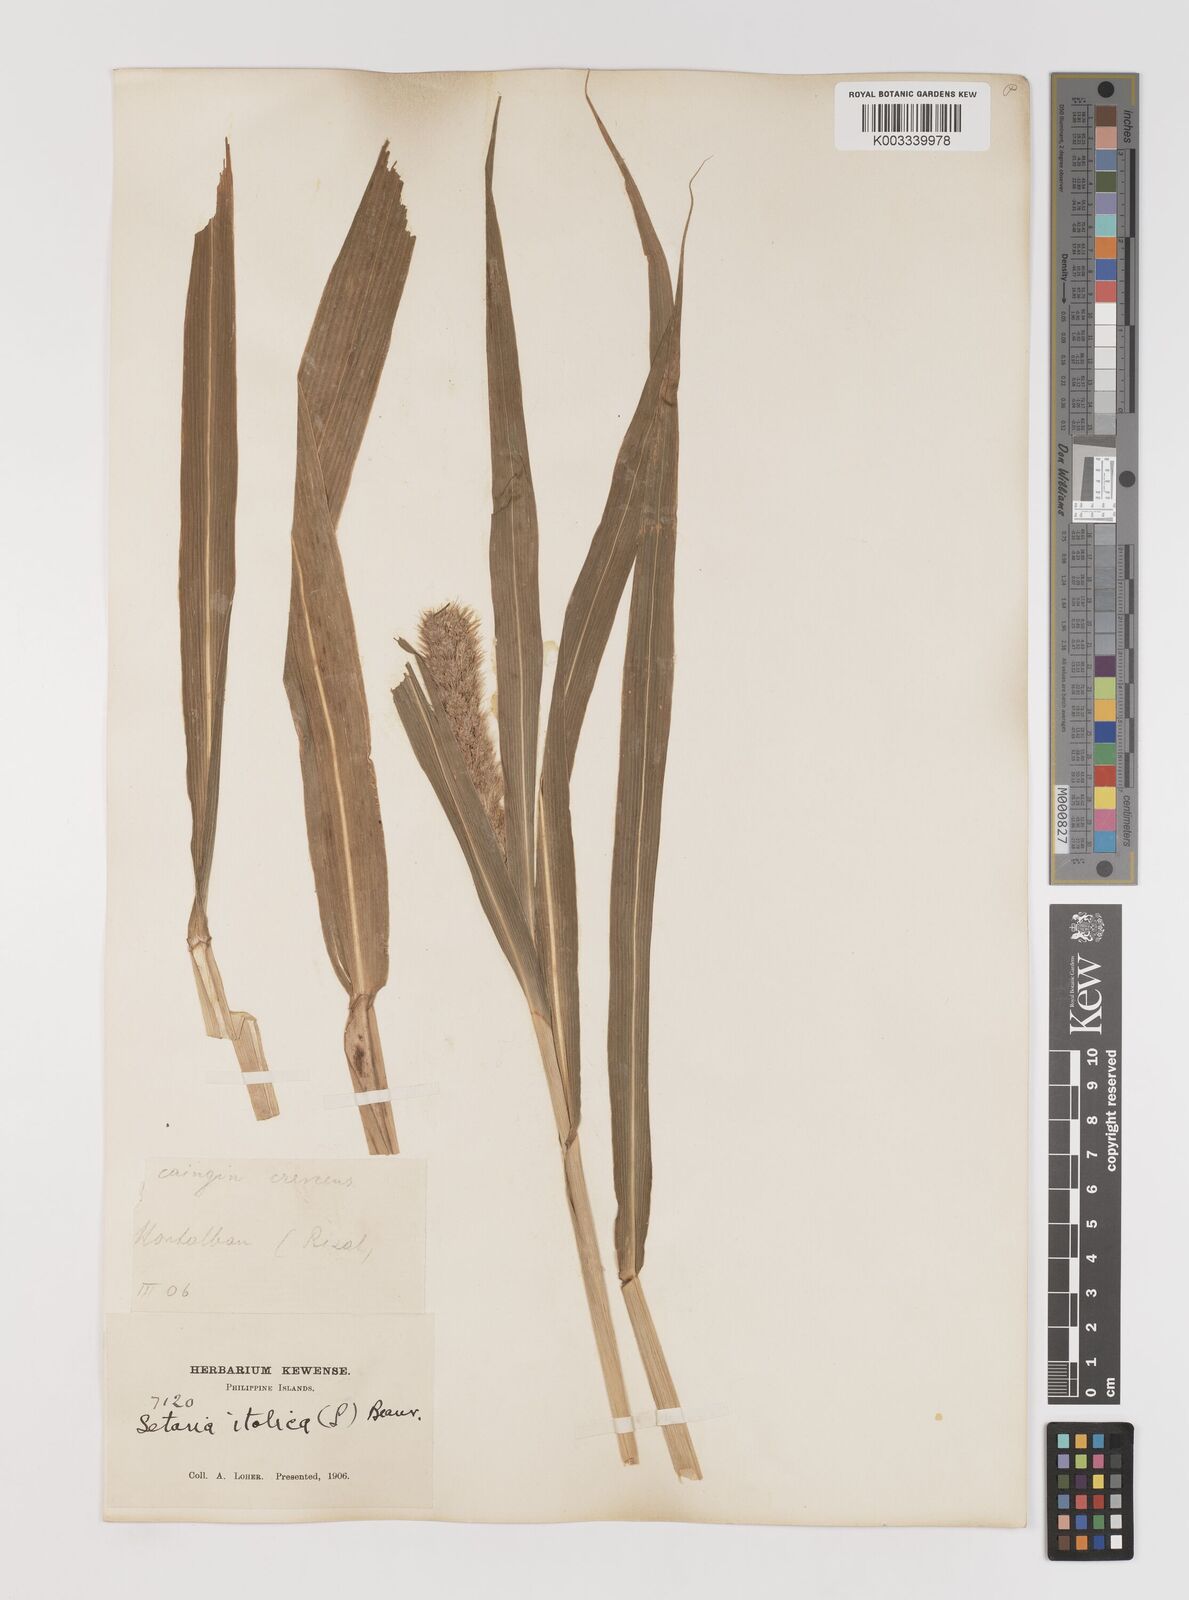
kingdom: Plantae
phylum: Tracheophyta
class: Liliopsida
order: Poales
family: Poaceae
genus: Setaria
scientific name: Setaria italica
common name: Foxtail bristle-grass
